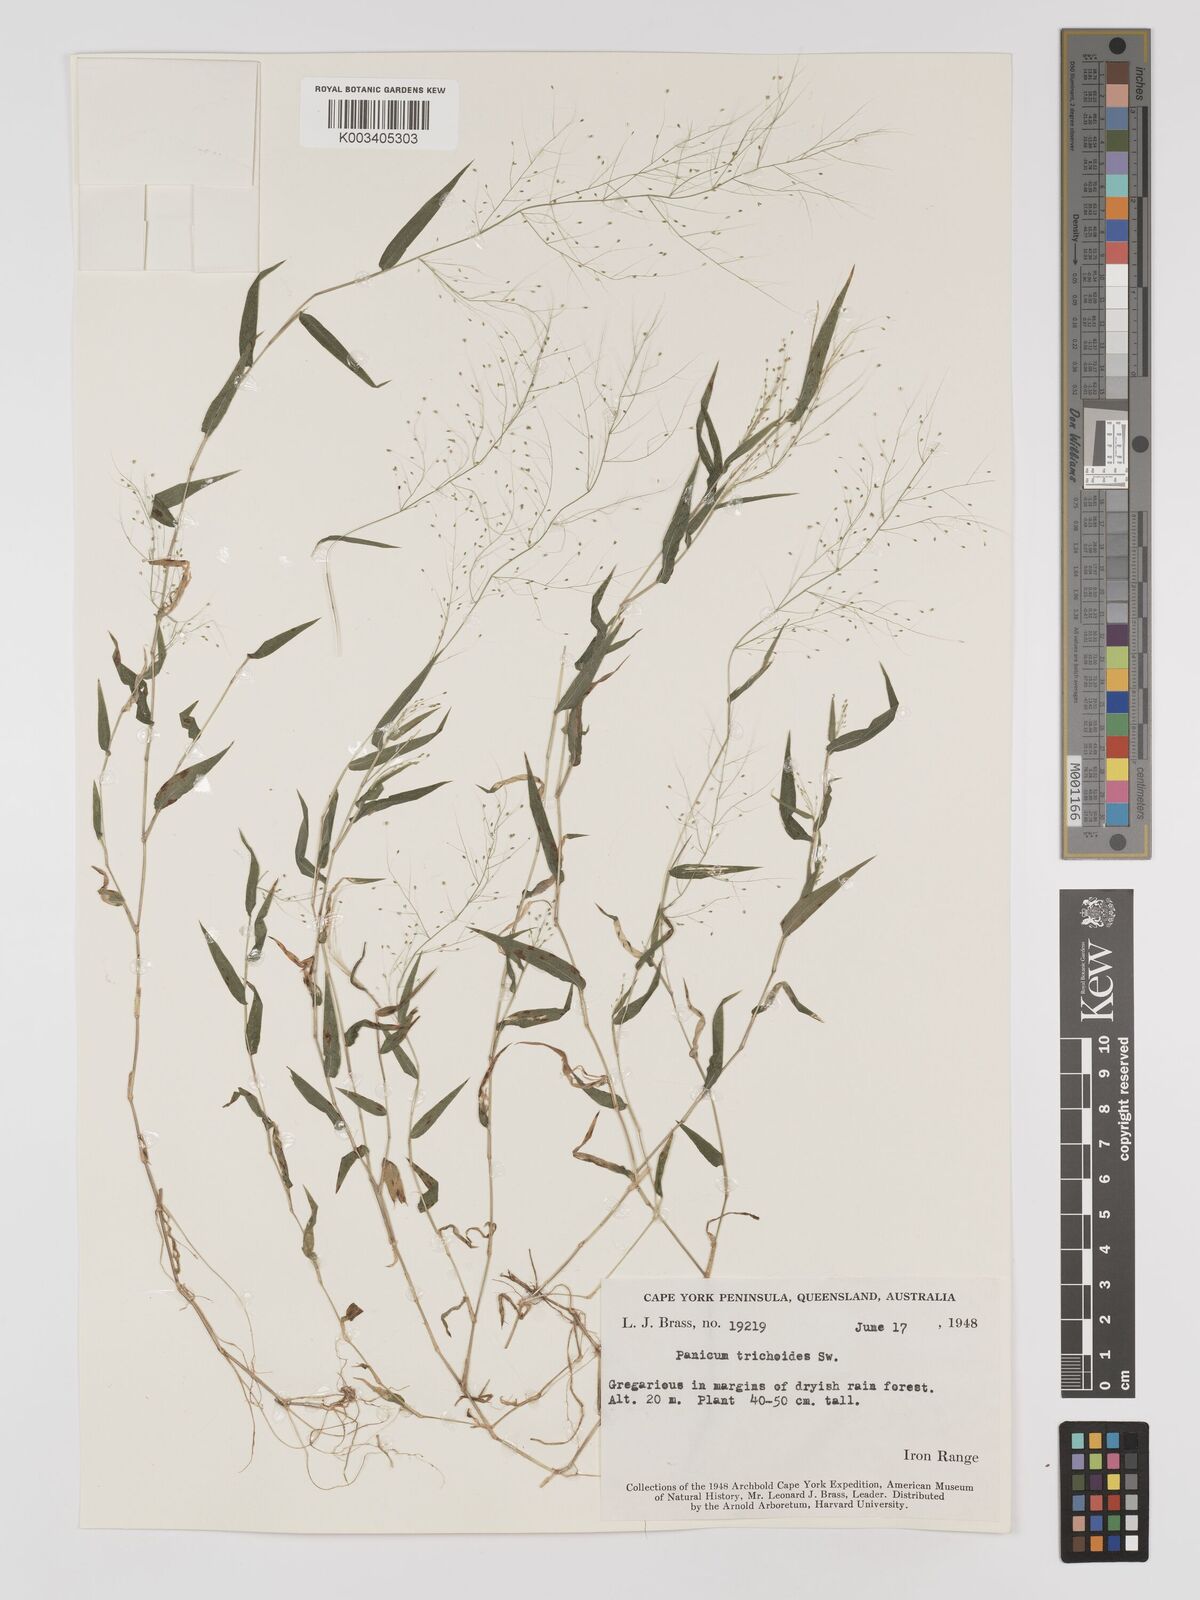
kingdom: Plantae
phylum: Tracheophyta
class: Liliopsida
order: Poales
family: Poaceae
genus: Panicum
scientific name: Panicum trichoides
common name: Tickle grass
